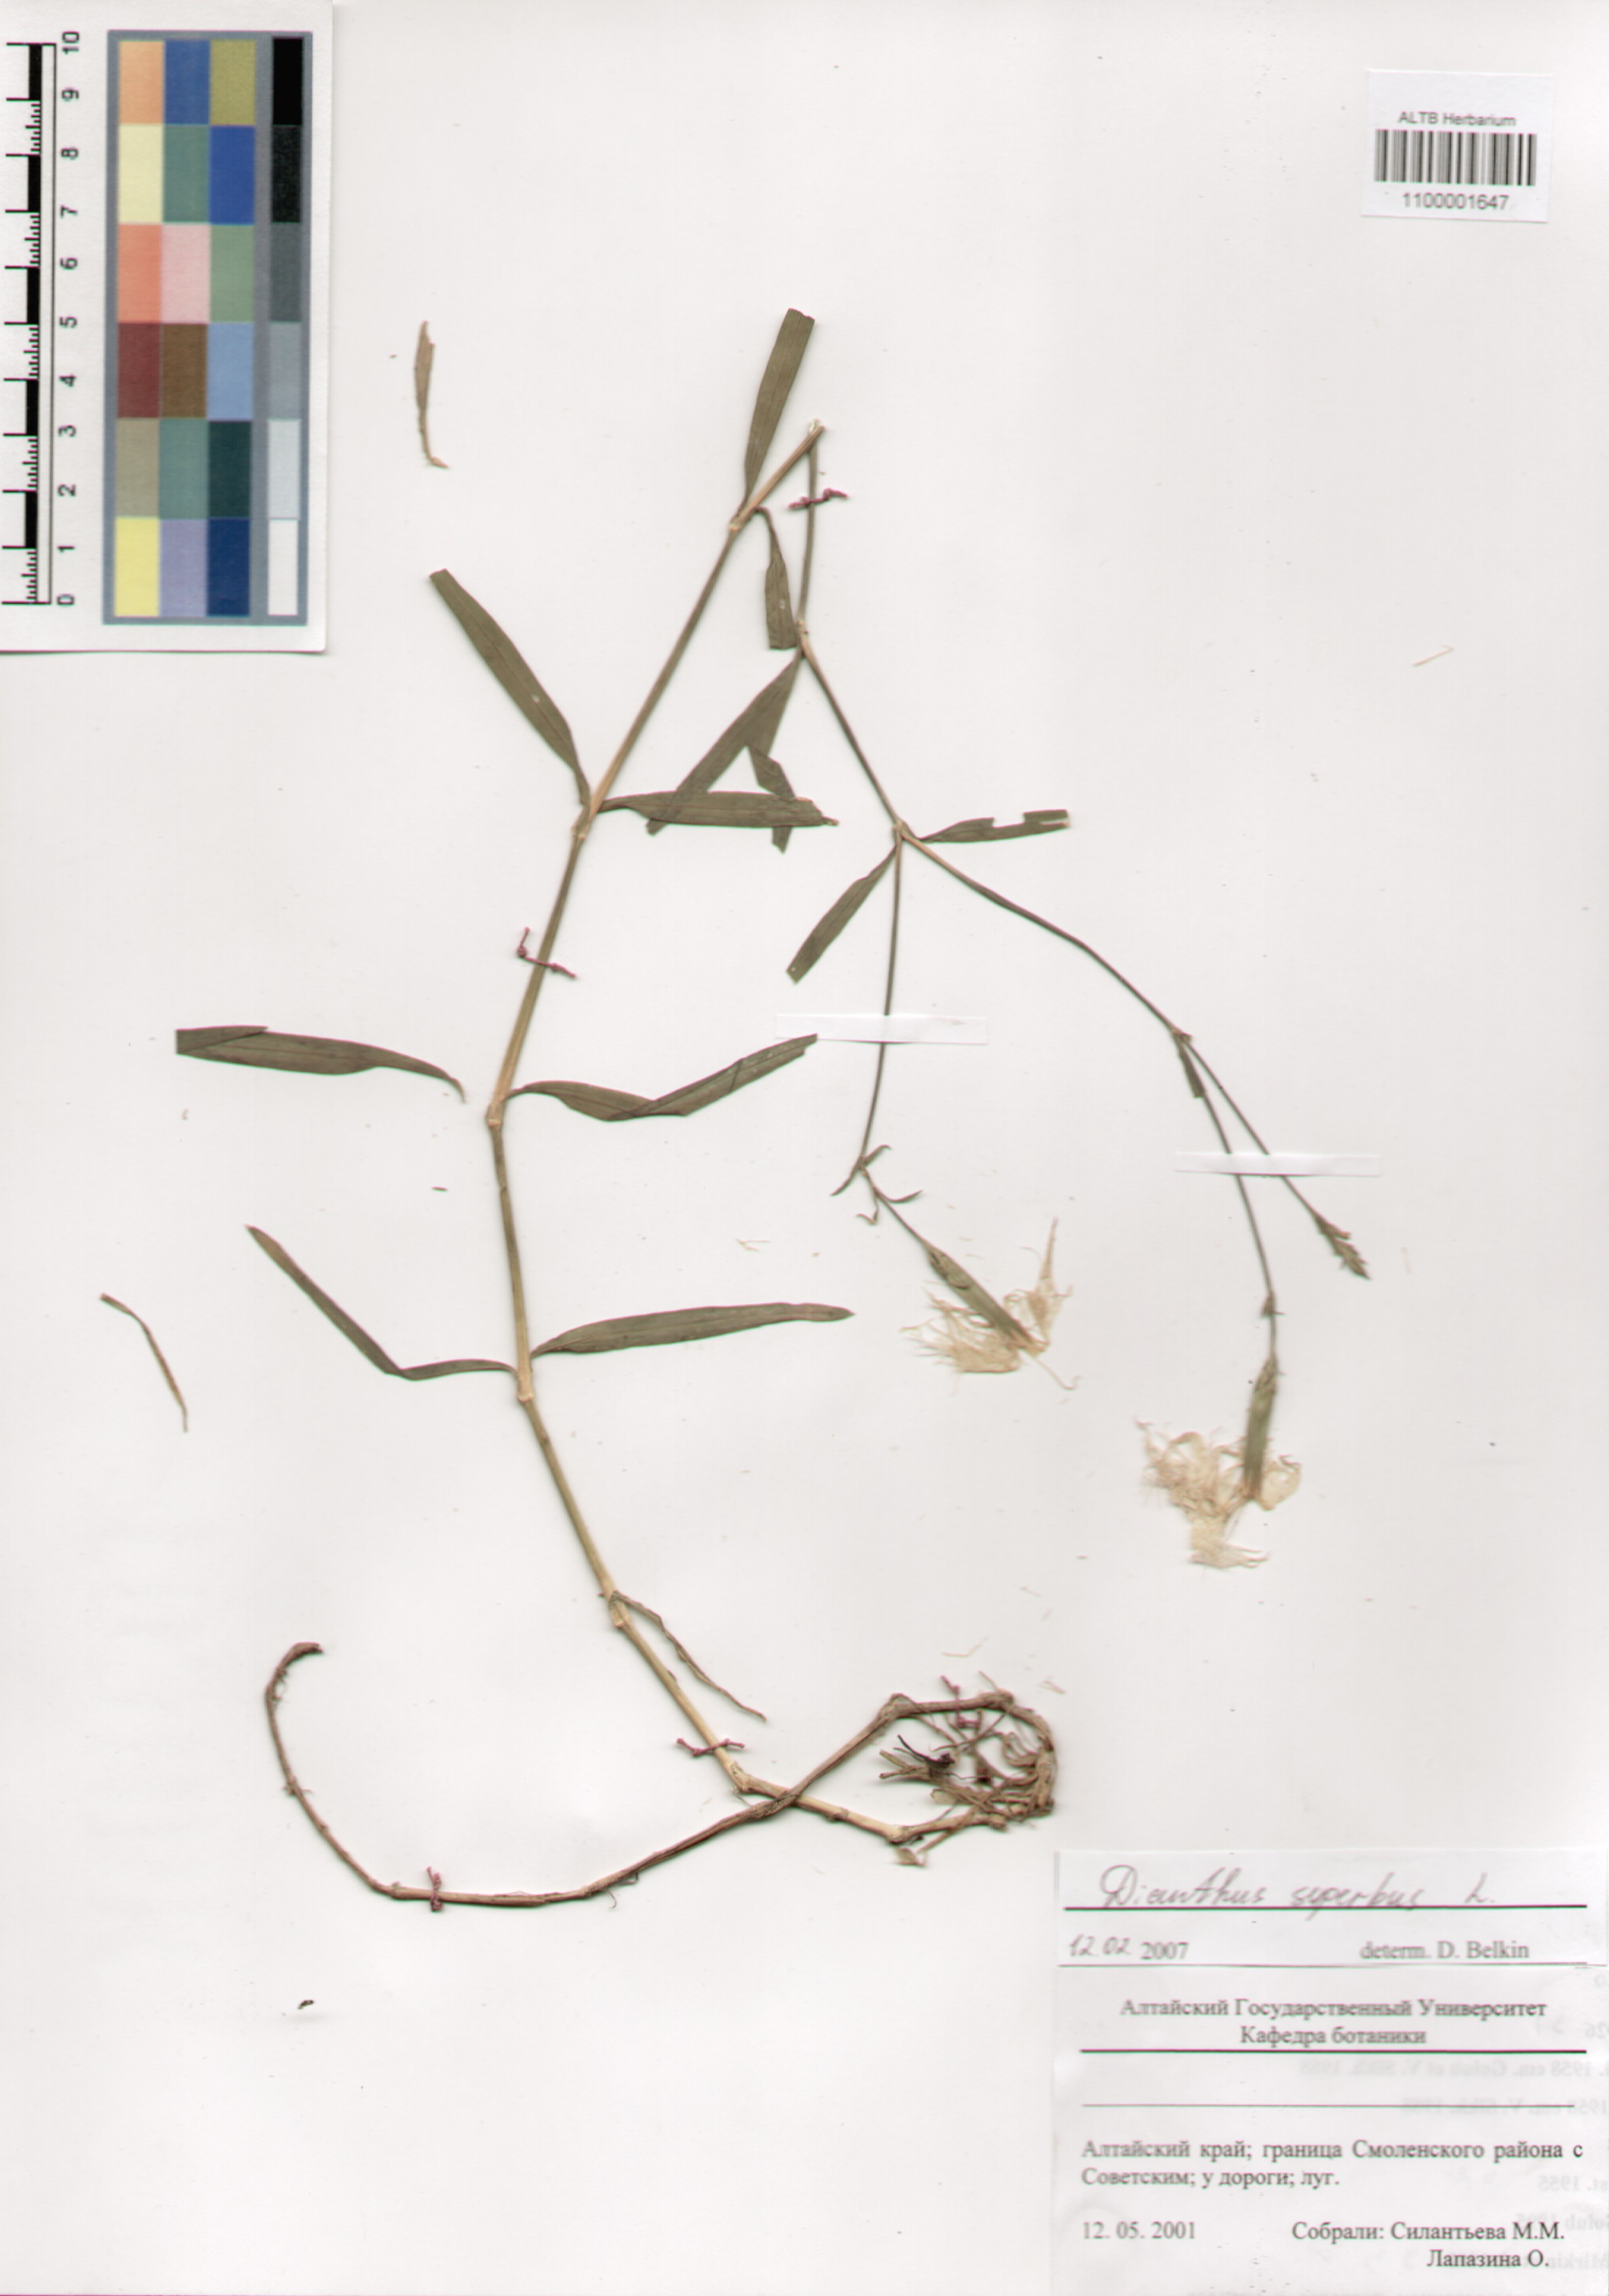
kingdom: Plantae
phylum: Tracheophyta
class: Magnoliopsida
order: Caryophyllales
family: Caryophyllaceae
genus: Dianthus
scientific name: Dianthus superbus
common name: Fringed pink
